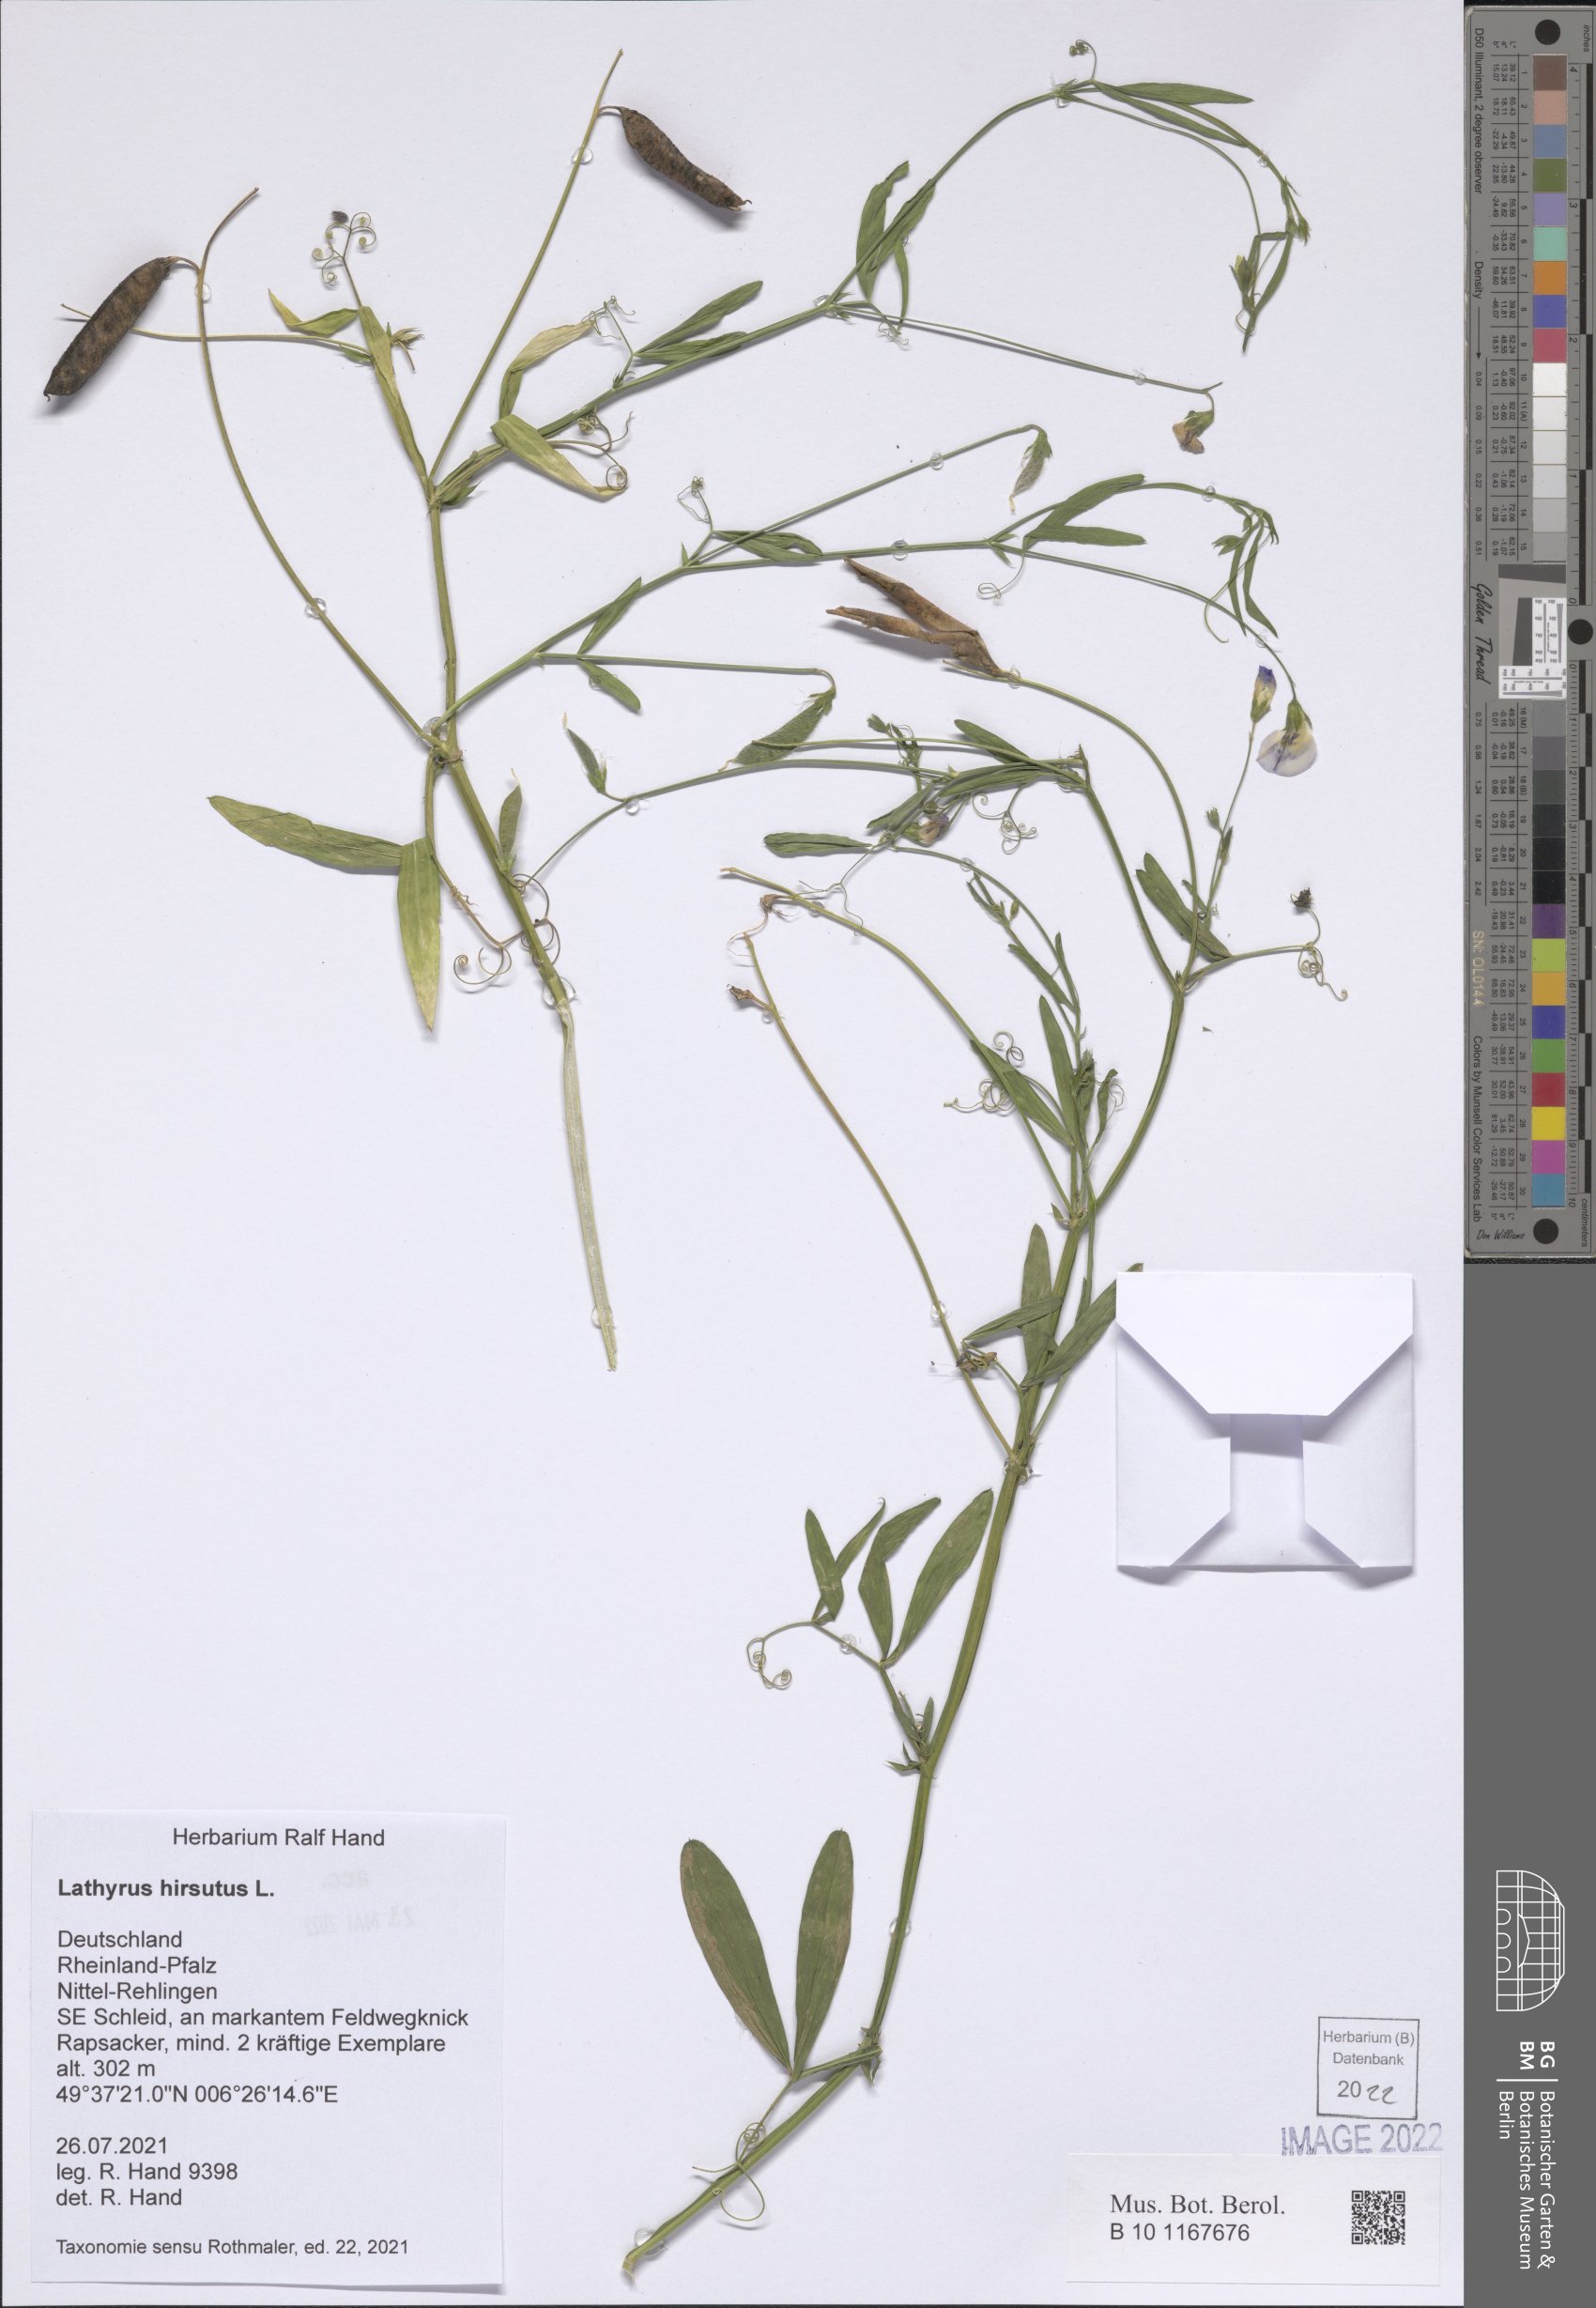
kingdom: Plantae
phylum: Tracheophyta
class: Magnoliopsida
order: Fabales
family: Fabaceae
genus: Lathyrus
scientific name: Lathyrus hirsutus
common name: Hairy vetchling
